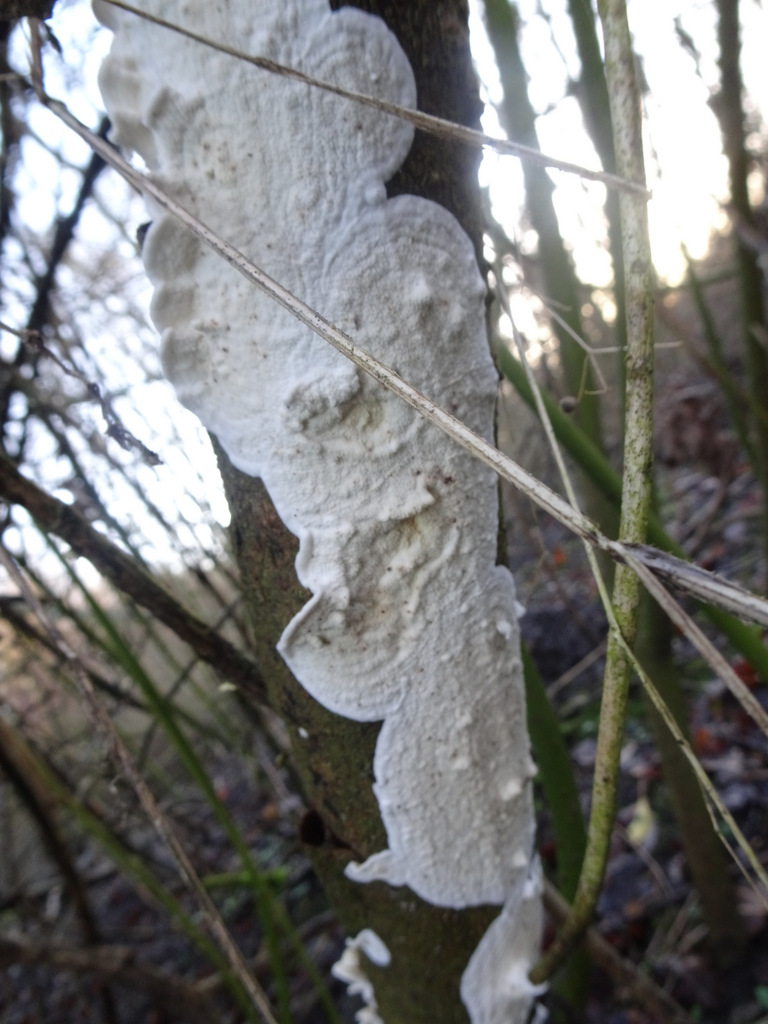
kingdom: Fungi
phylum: Basidiomycota
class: Agaricomycetes
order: Polyporales
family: Irpicaceae
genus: Byssomerulius
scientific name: Byssomerulius corium
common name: læder-åresvamp
